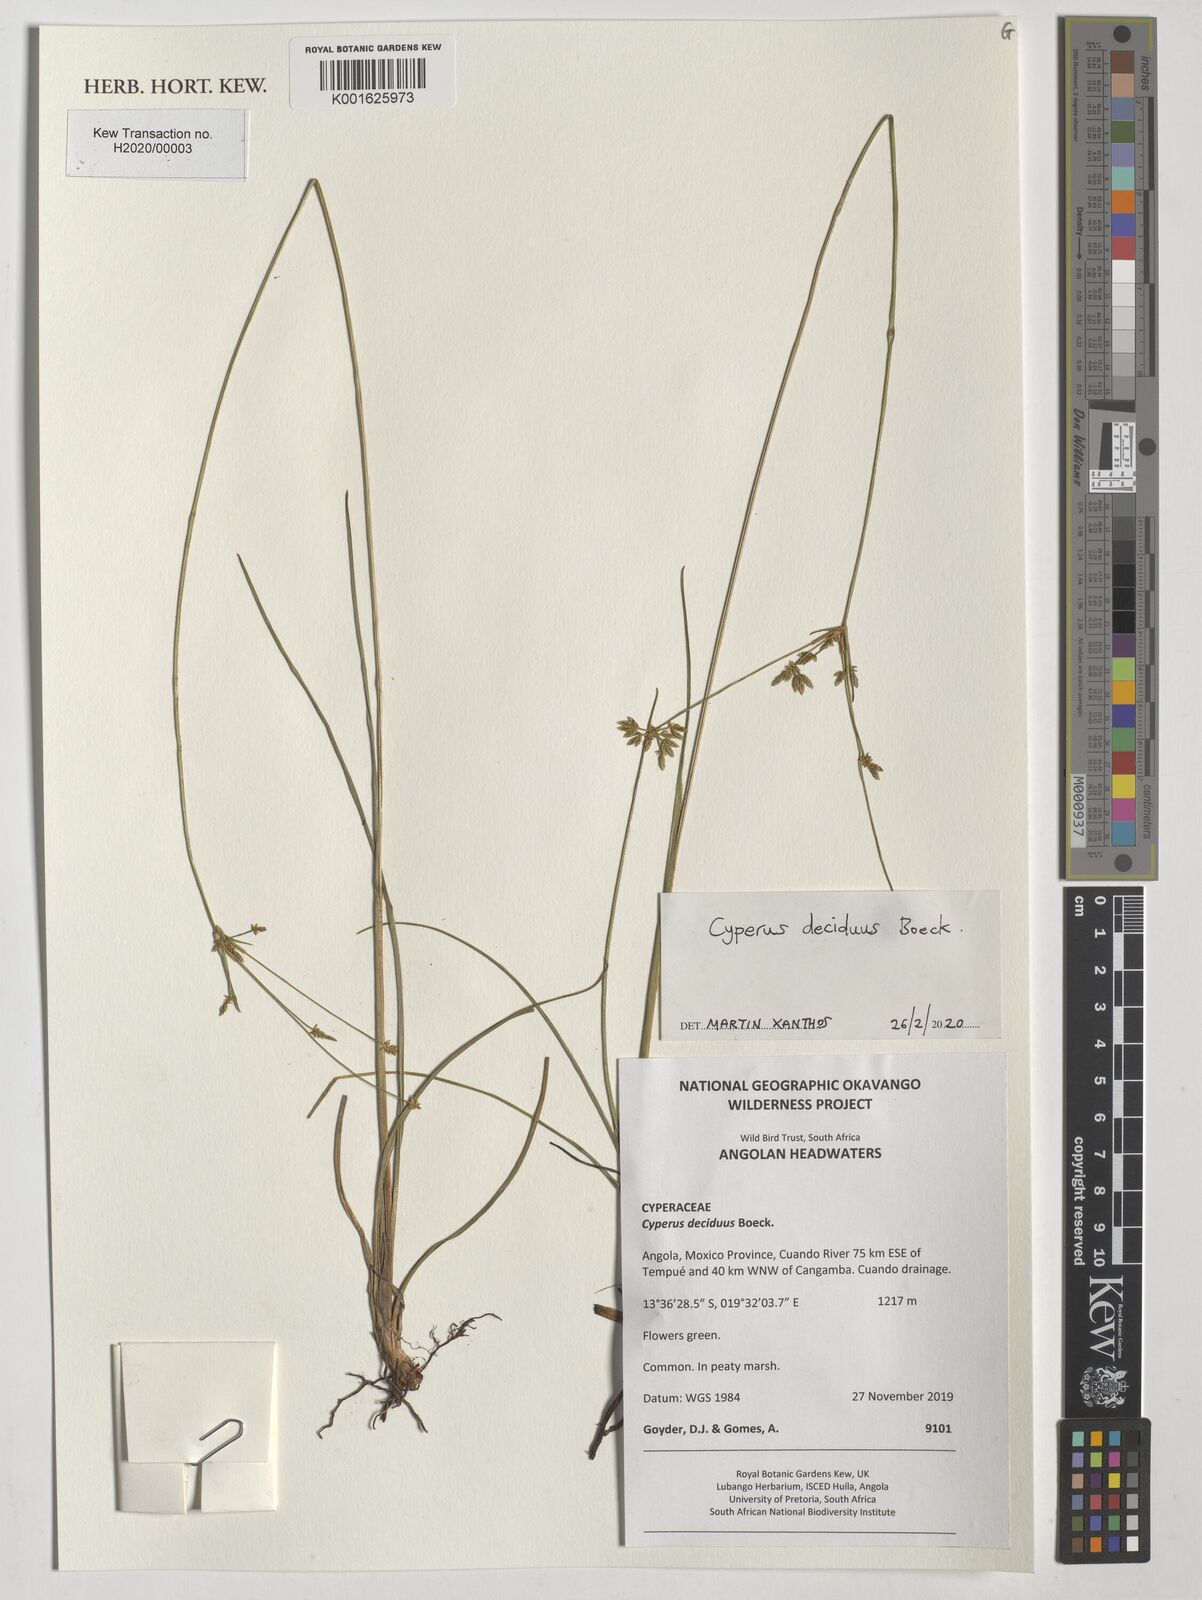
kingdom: Plantae
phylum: Tracheophyta
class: Liliopsida
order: Poales
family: Cyperaceae
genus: Cyperus
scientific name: Cyperus deciduus
